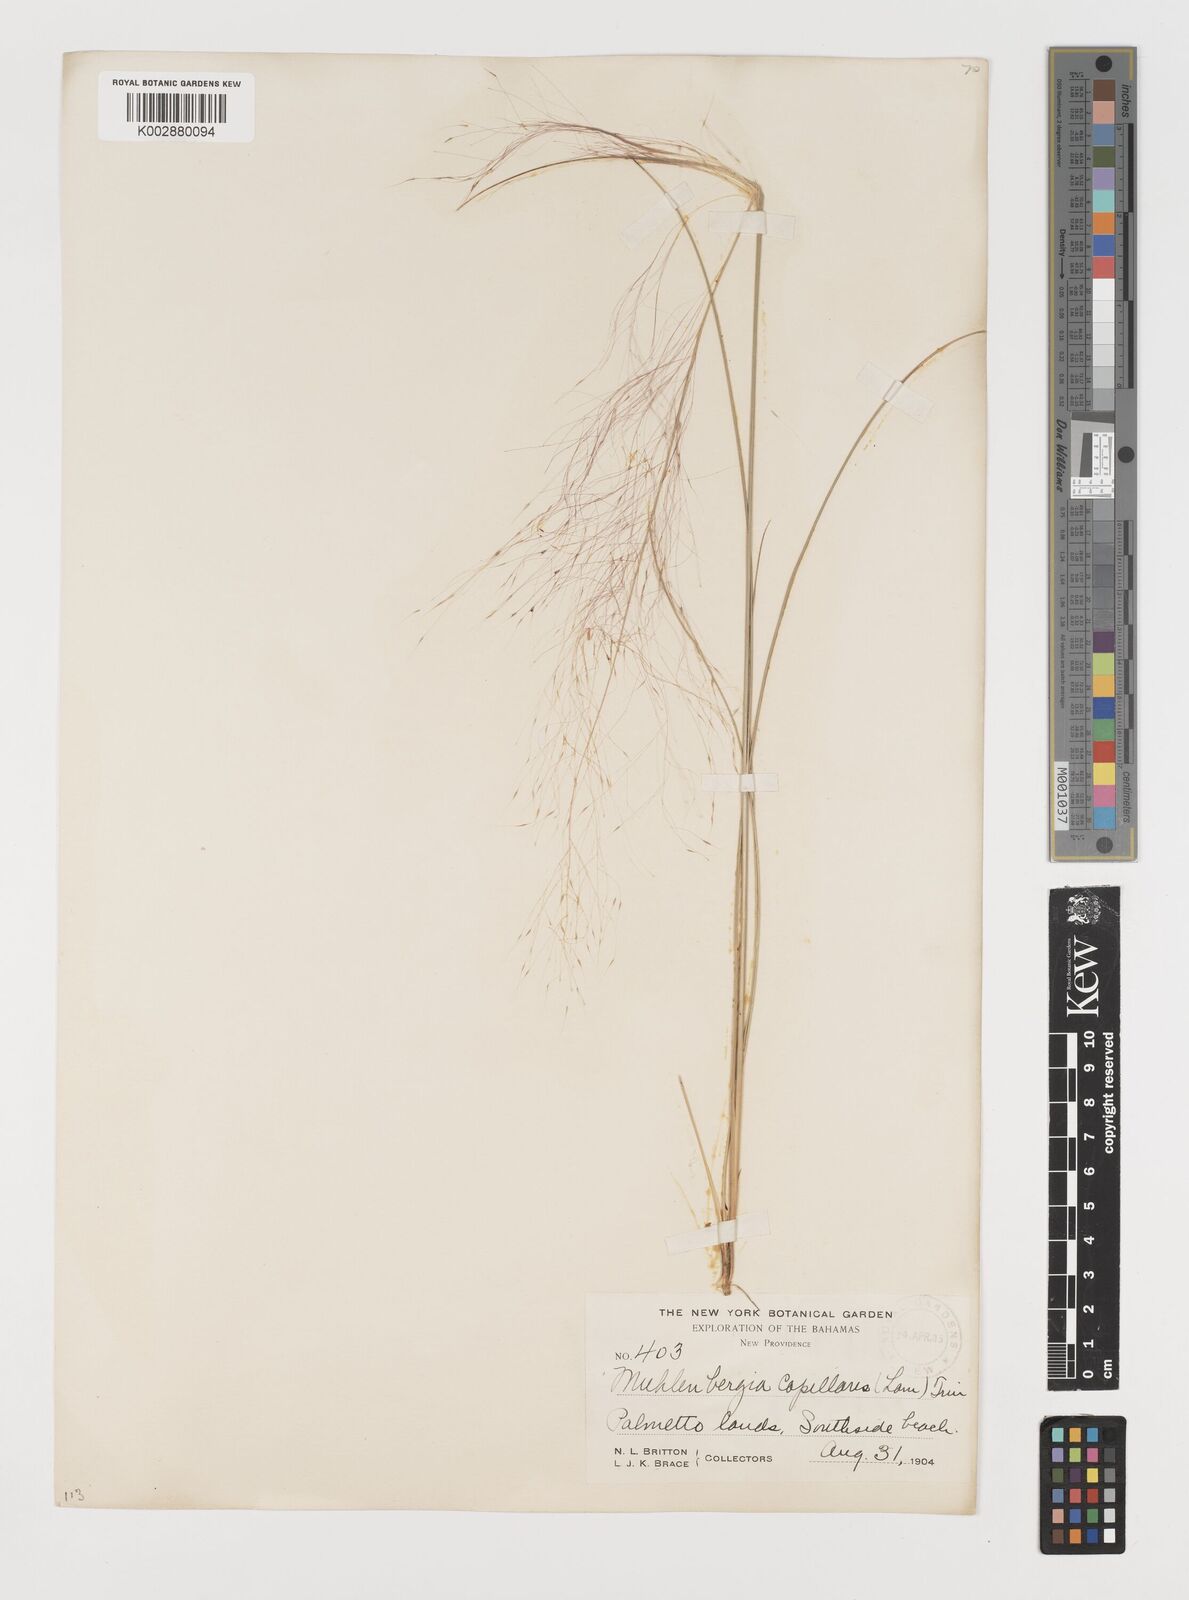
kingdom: Plantae
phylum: Tracheophyta
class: Liliopsida
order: Poales
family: Poaceae
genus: Muhlenbergia
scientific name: Muhlenbergia capillaris
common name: Purple grass
